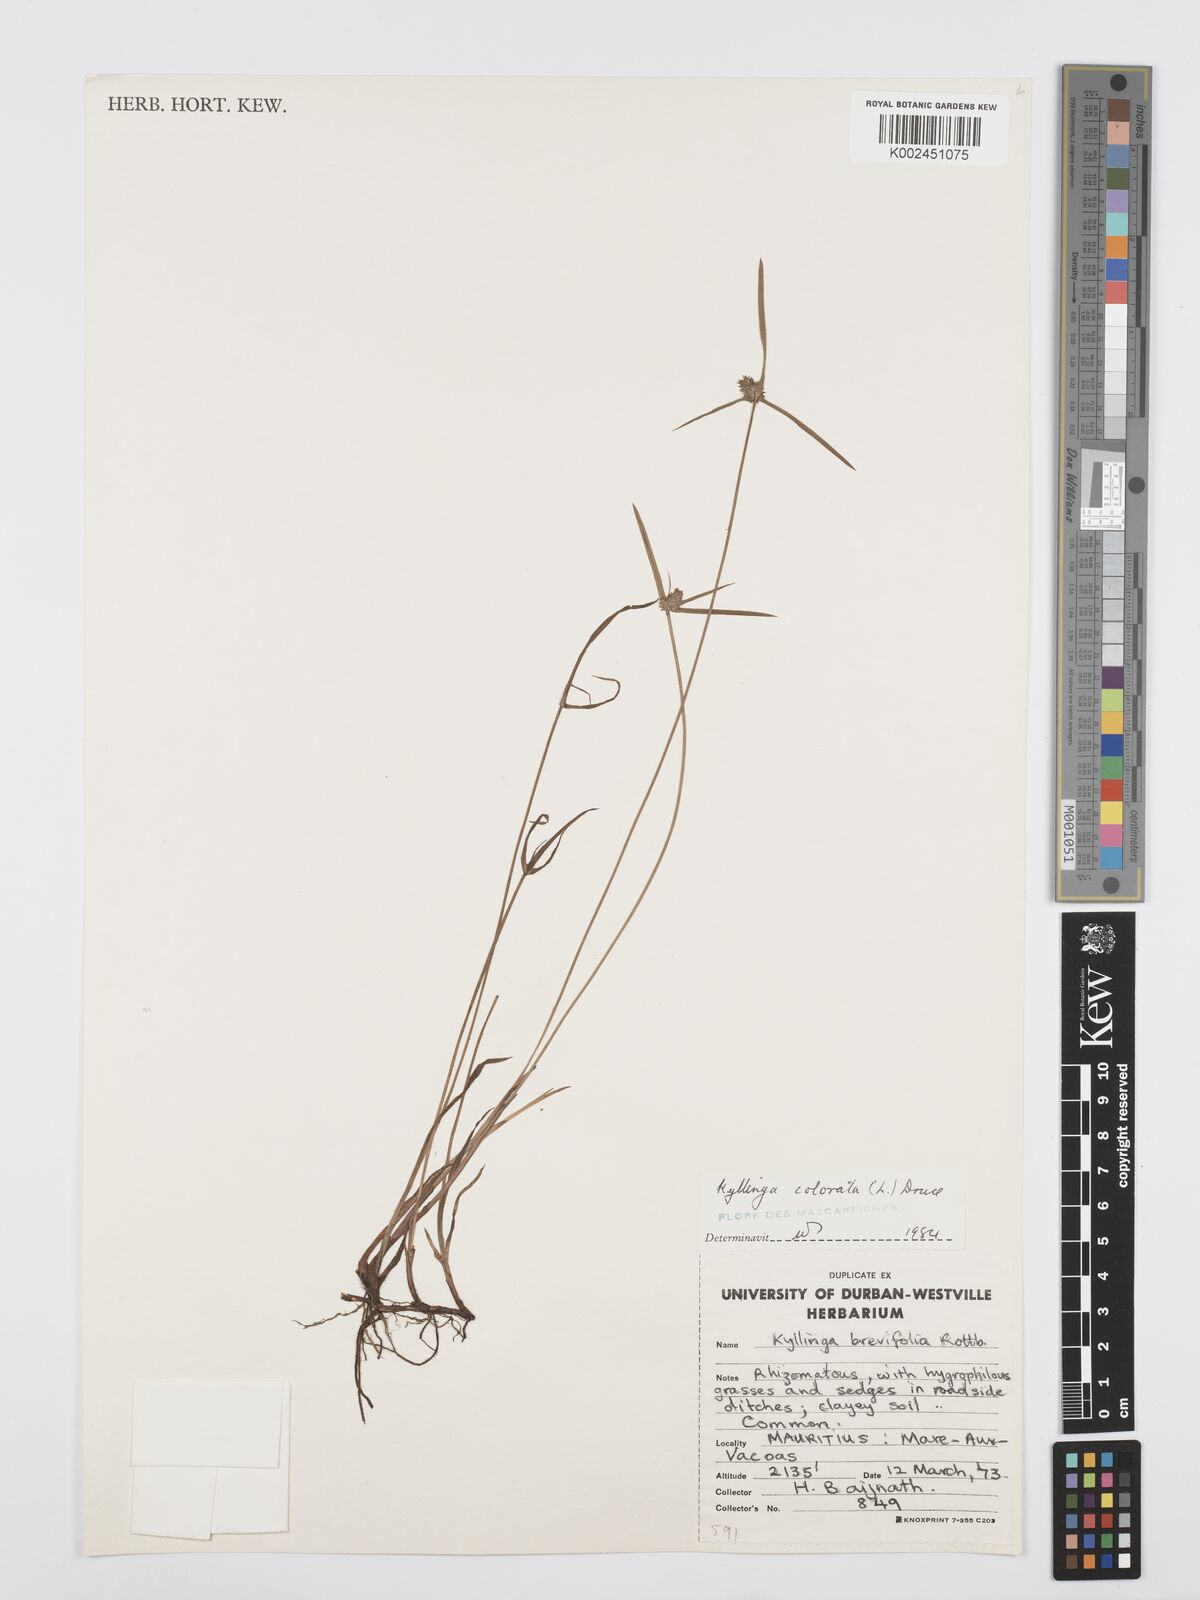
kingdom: Plantae
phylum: Tracheophyta
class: Liliopsida
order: Poales
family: Cyperaceae
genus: Cyperus
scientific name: Cyperus brevifolius
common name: Globe kyllinga
